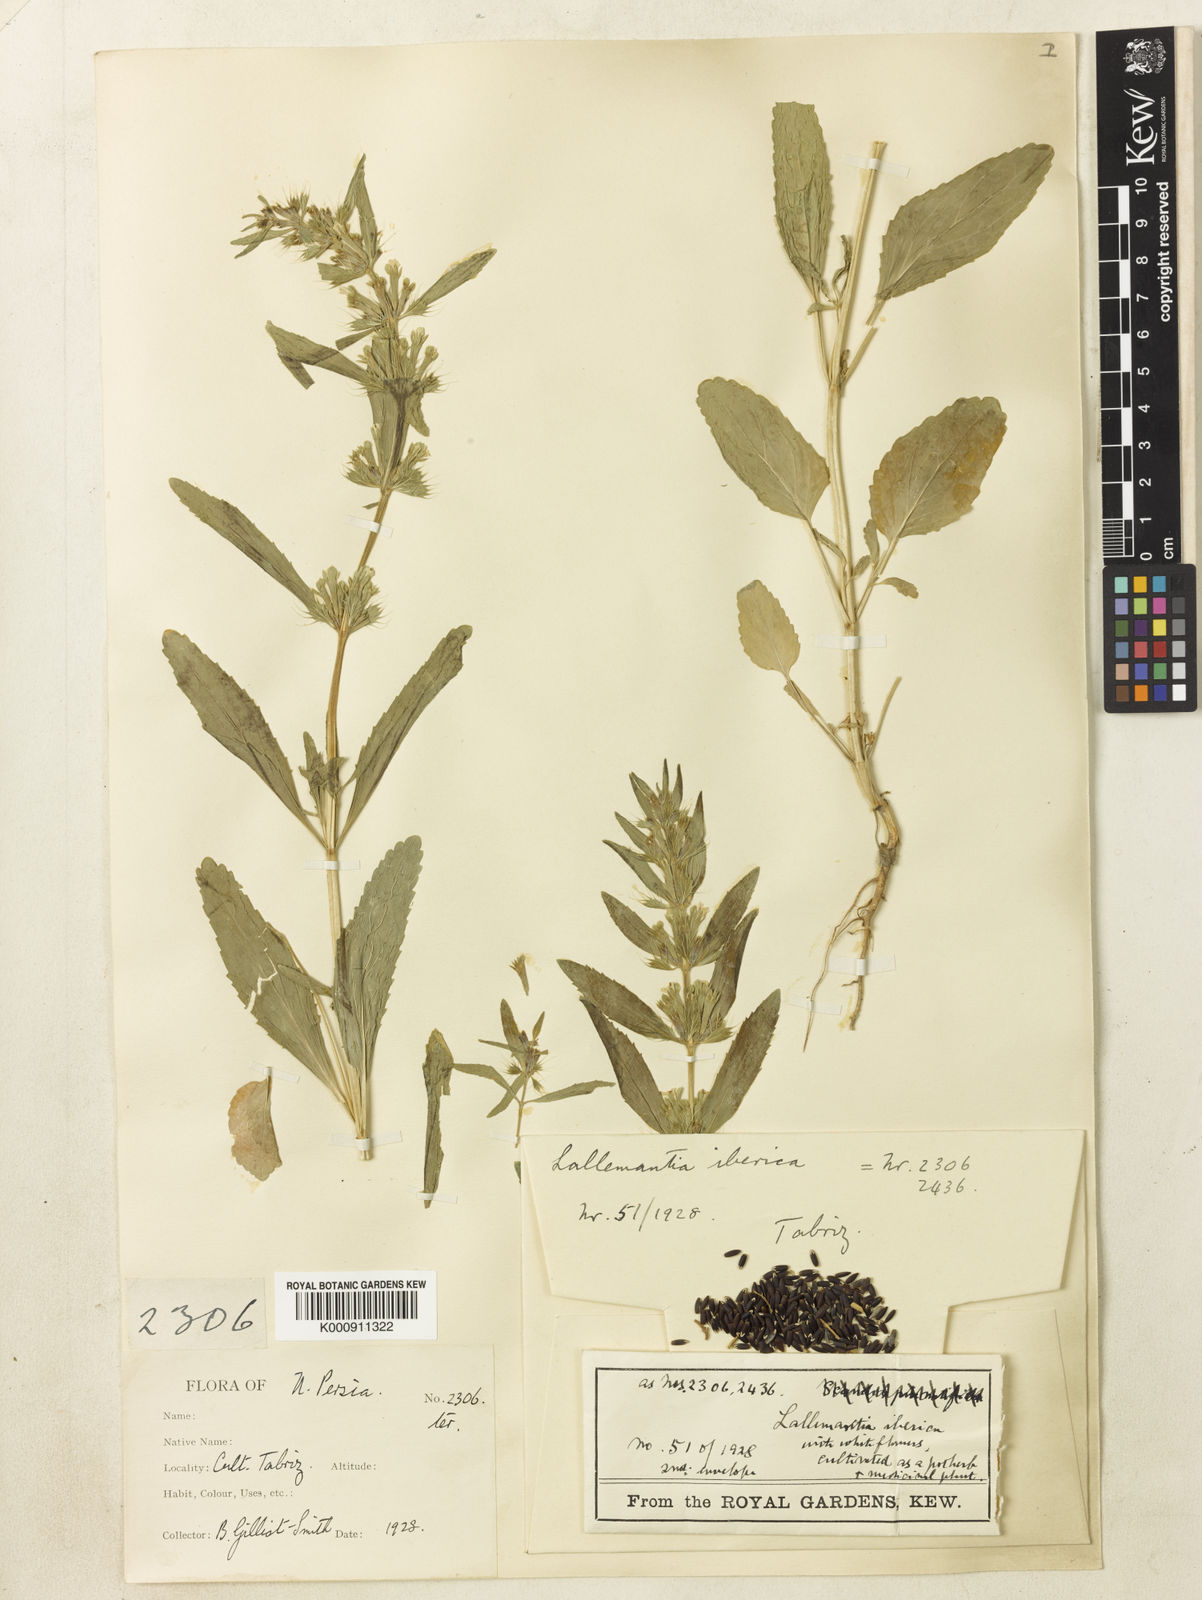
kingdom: Plantae
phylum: Tracheophyta
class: Magnoliopsida
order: Lamiales
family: Lamiaceae
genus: Lallemantia
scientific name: Lallemantia iberica
